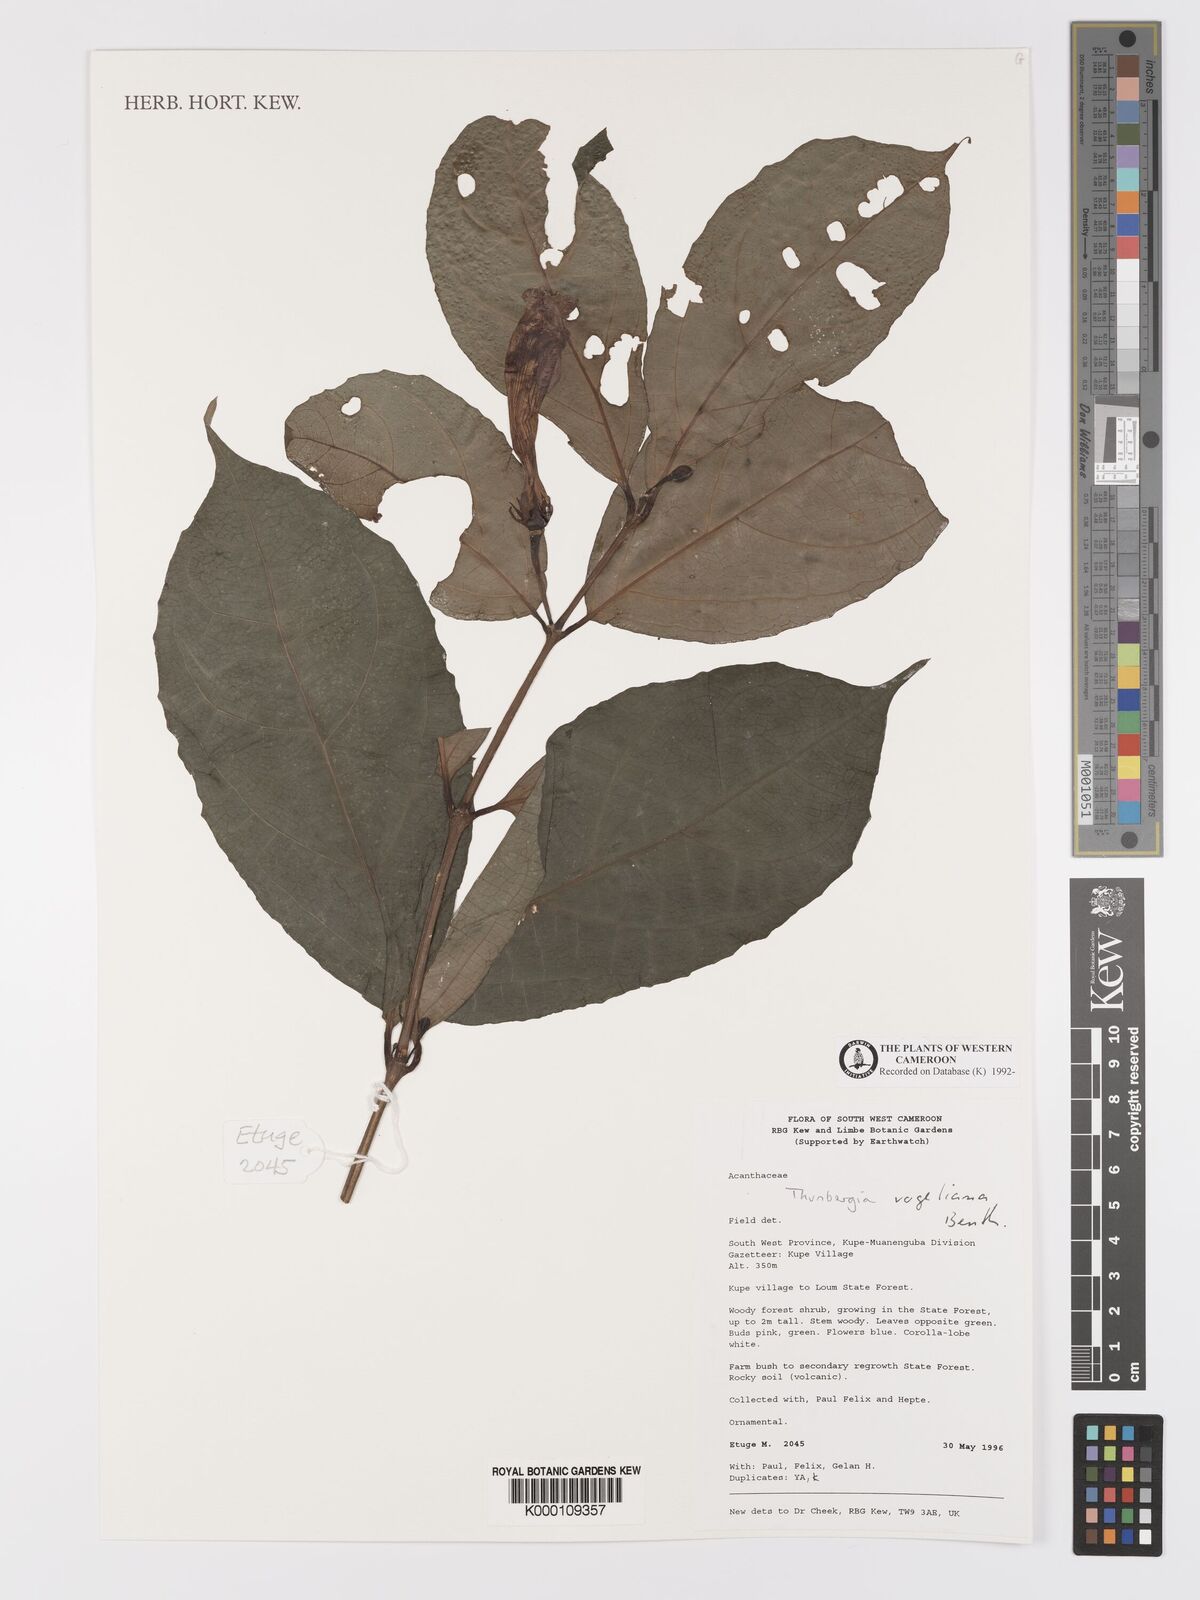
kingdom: Plantae
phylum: Tracheophyta
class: Magnoliopsida
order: Lamiales
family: Acanthaceae
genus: Thunbergia
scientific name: Thunbergia vogeliana
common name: Acanthaceae
